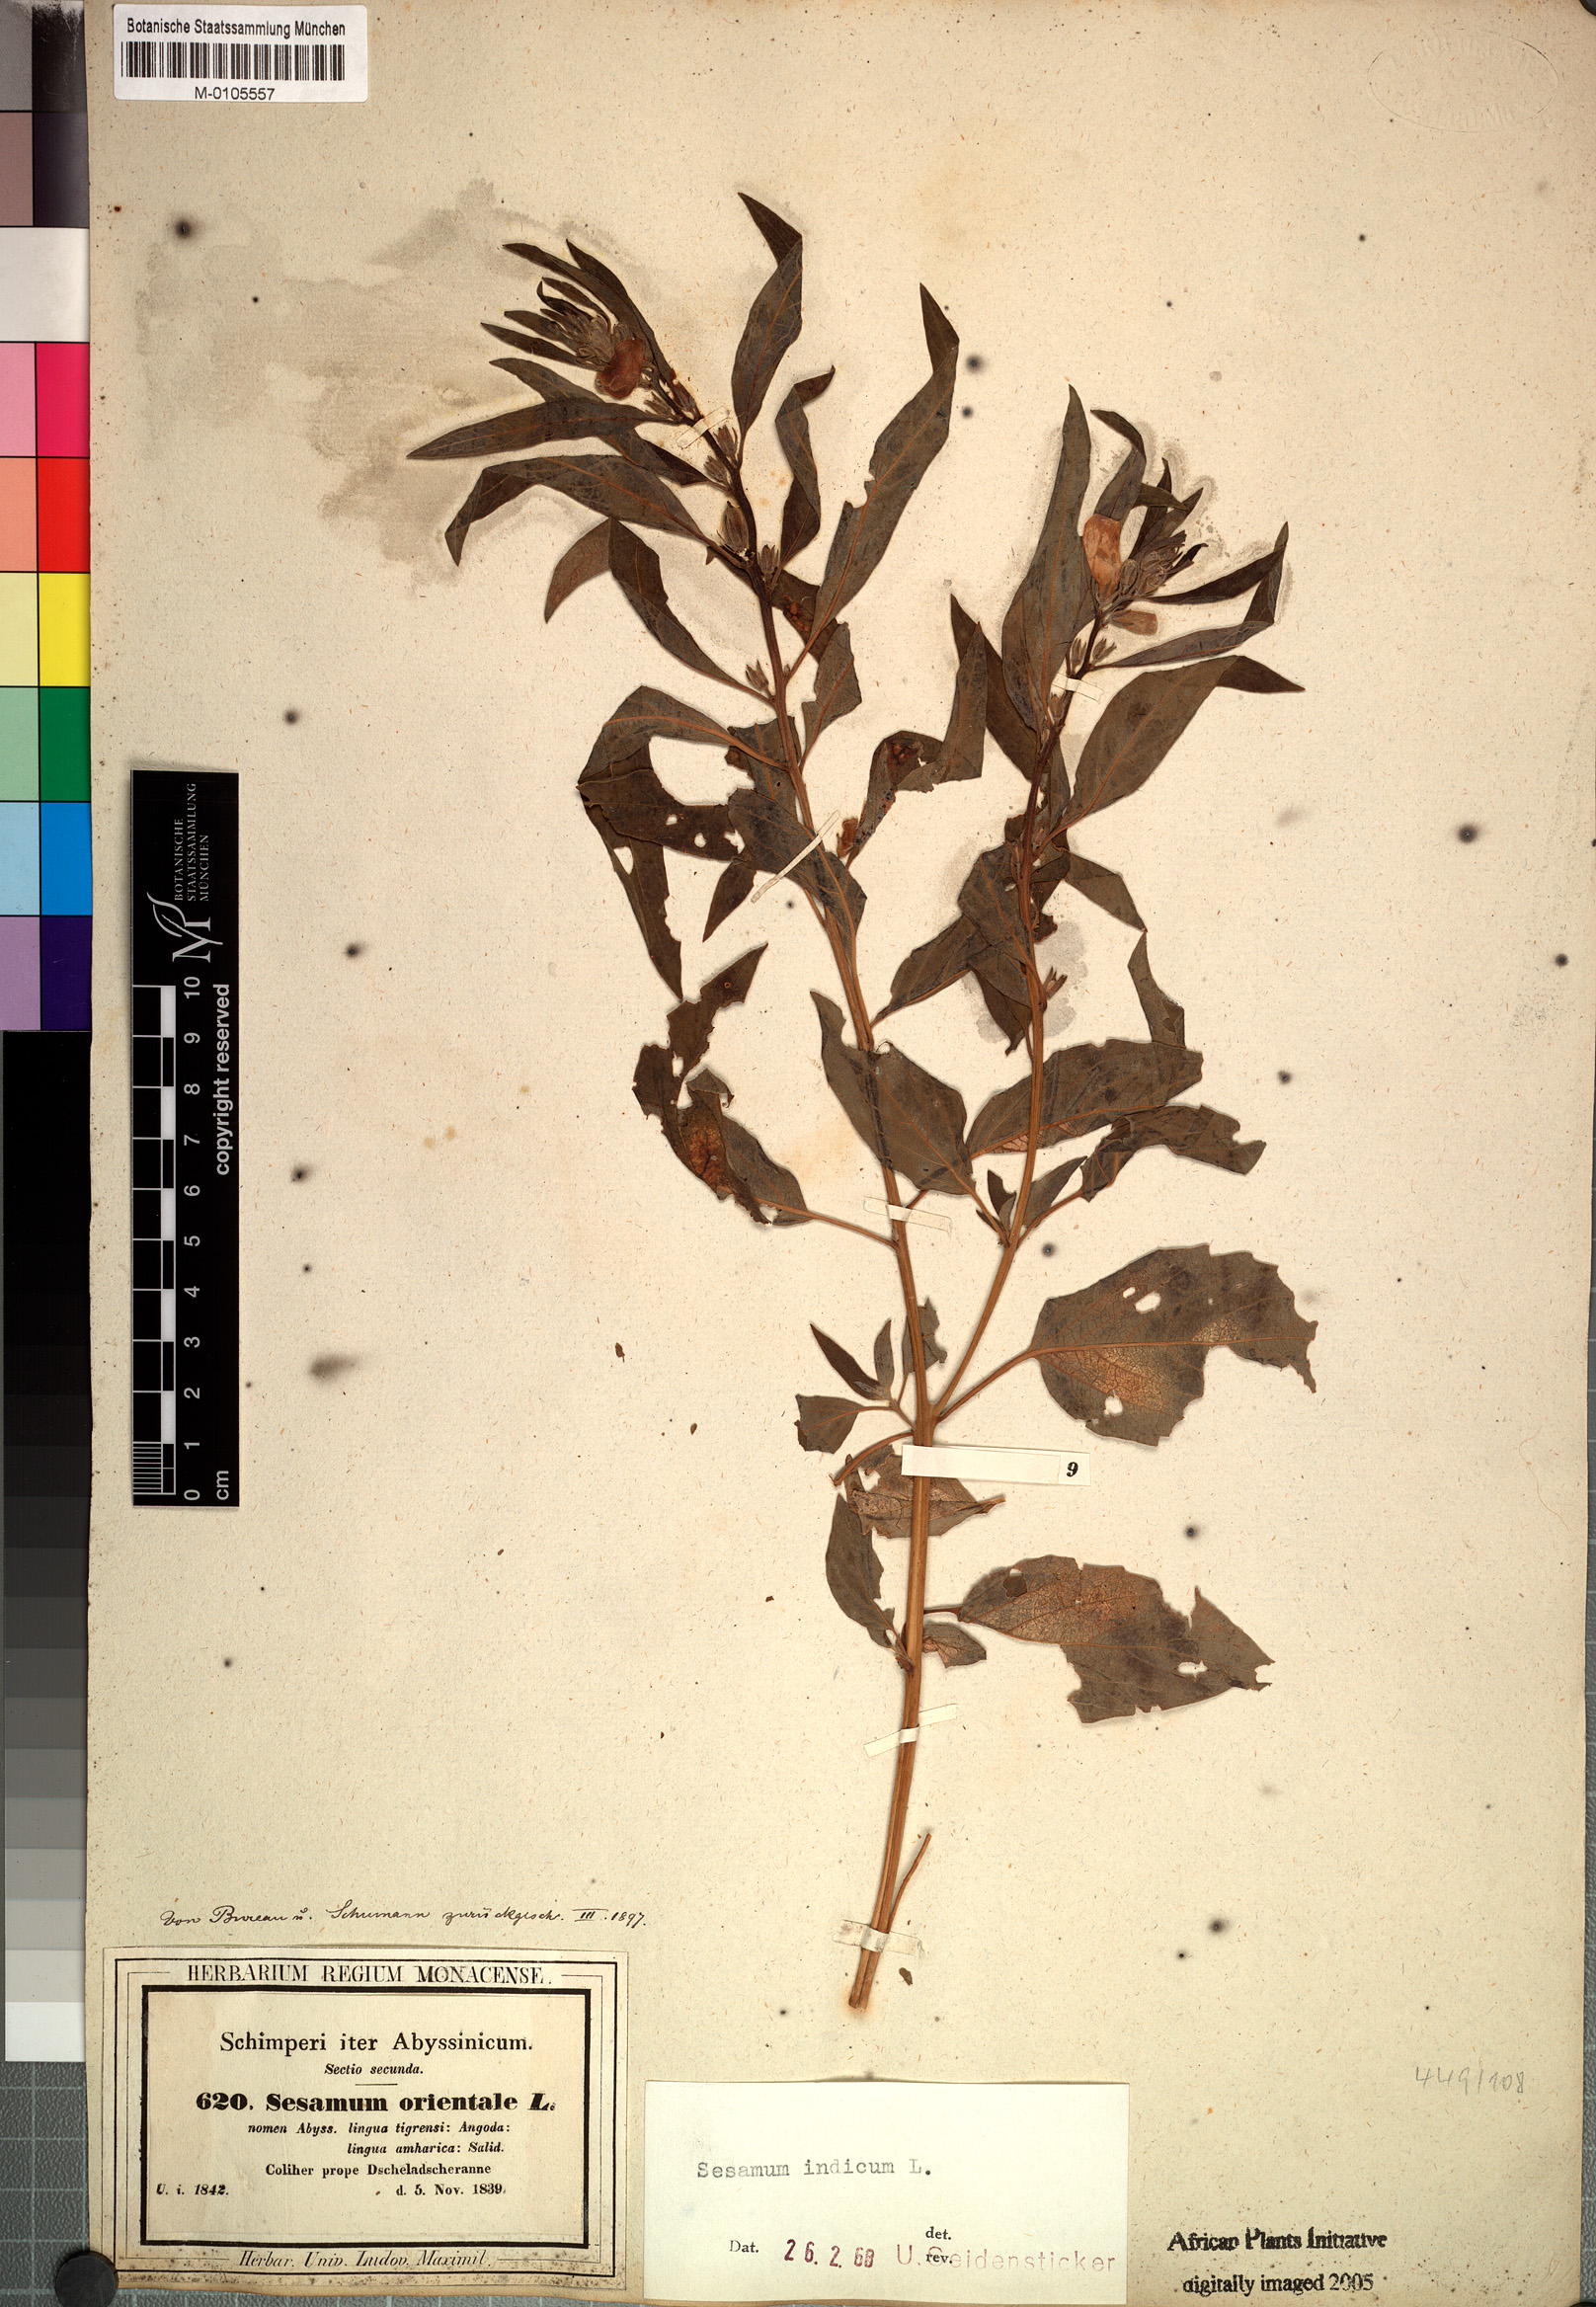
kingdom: Plantae
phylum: Tracheophyta
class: Magnoliopsida
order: Lamiales
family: Pedaliaceae
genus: Sesamum
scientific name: Sesamum indicum
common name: Sesame
